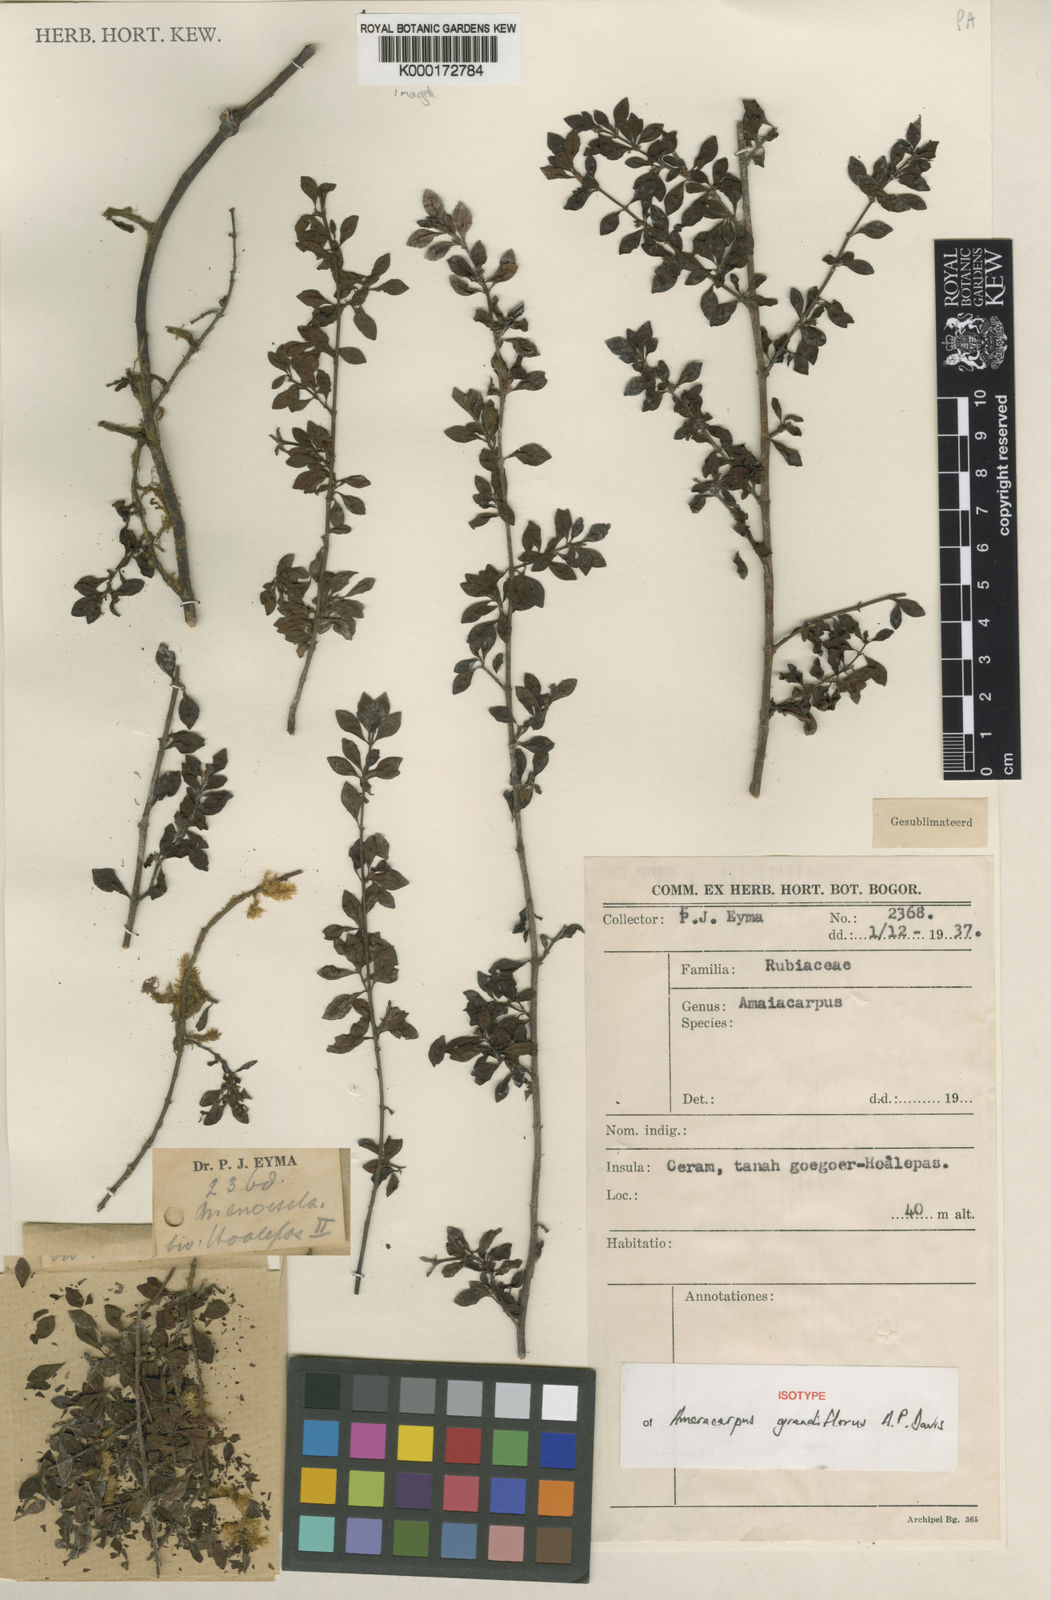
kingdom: Plantae
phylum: Tracheophyta
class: Magnoliopsida
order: Gentianales
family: Rubiaceae
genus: Amaracarpus
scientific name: Amaracarpus grandiflorus
